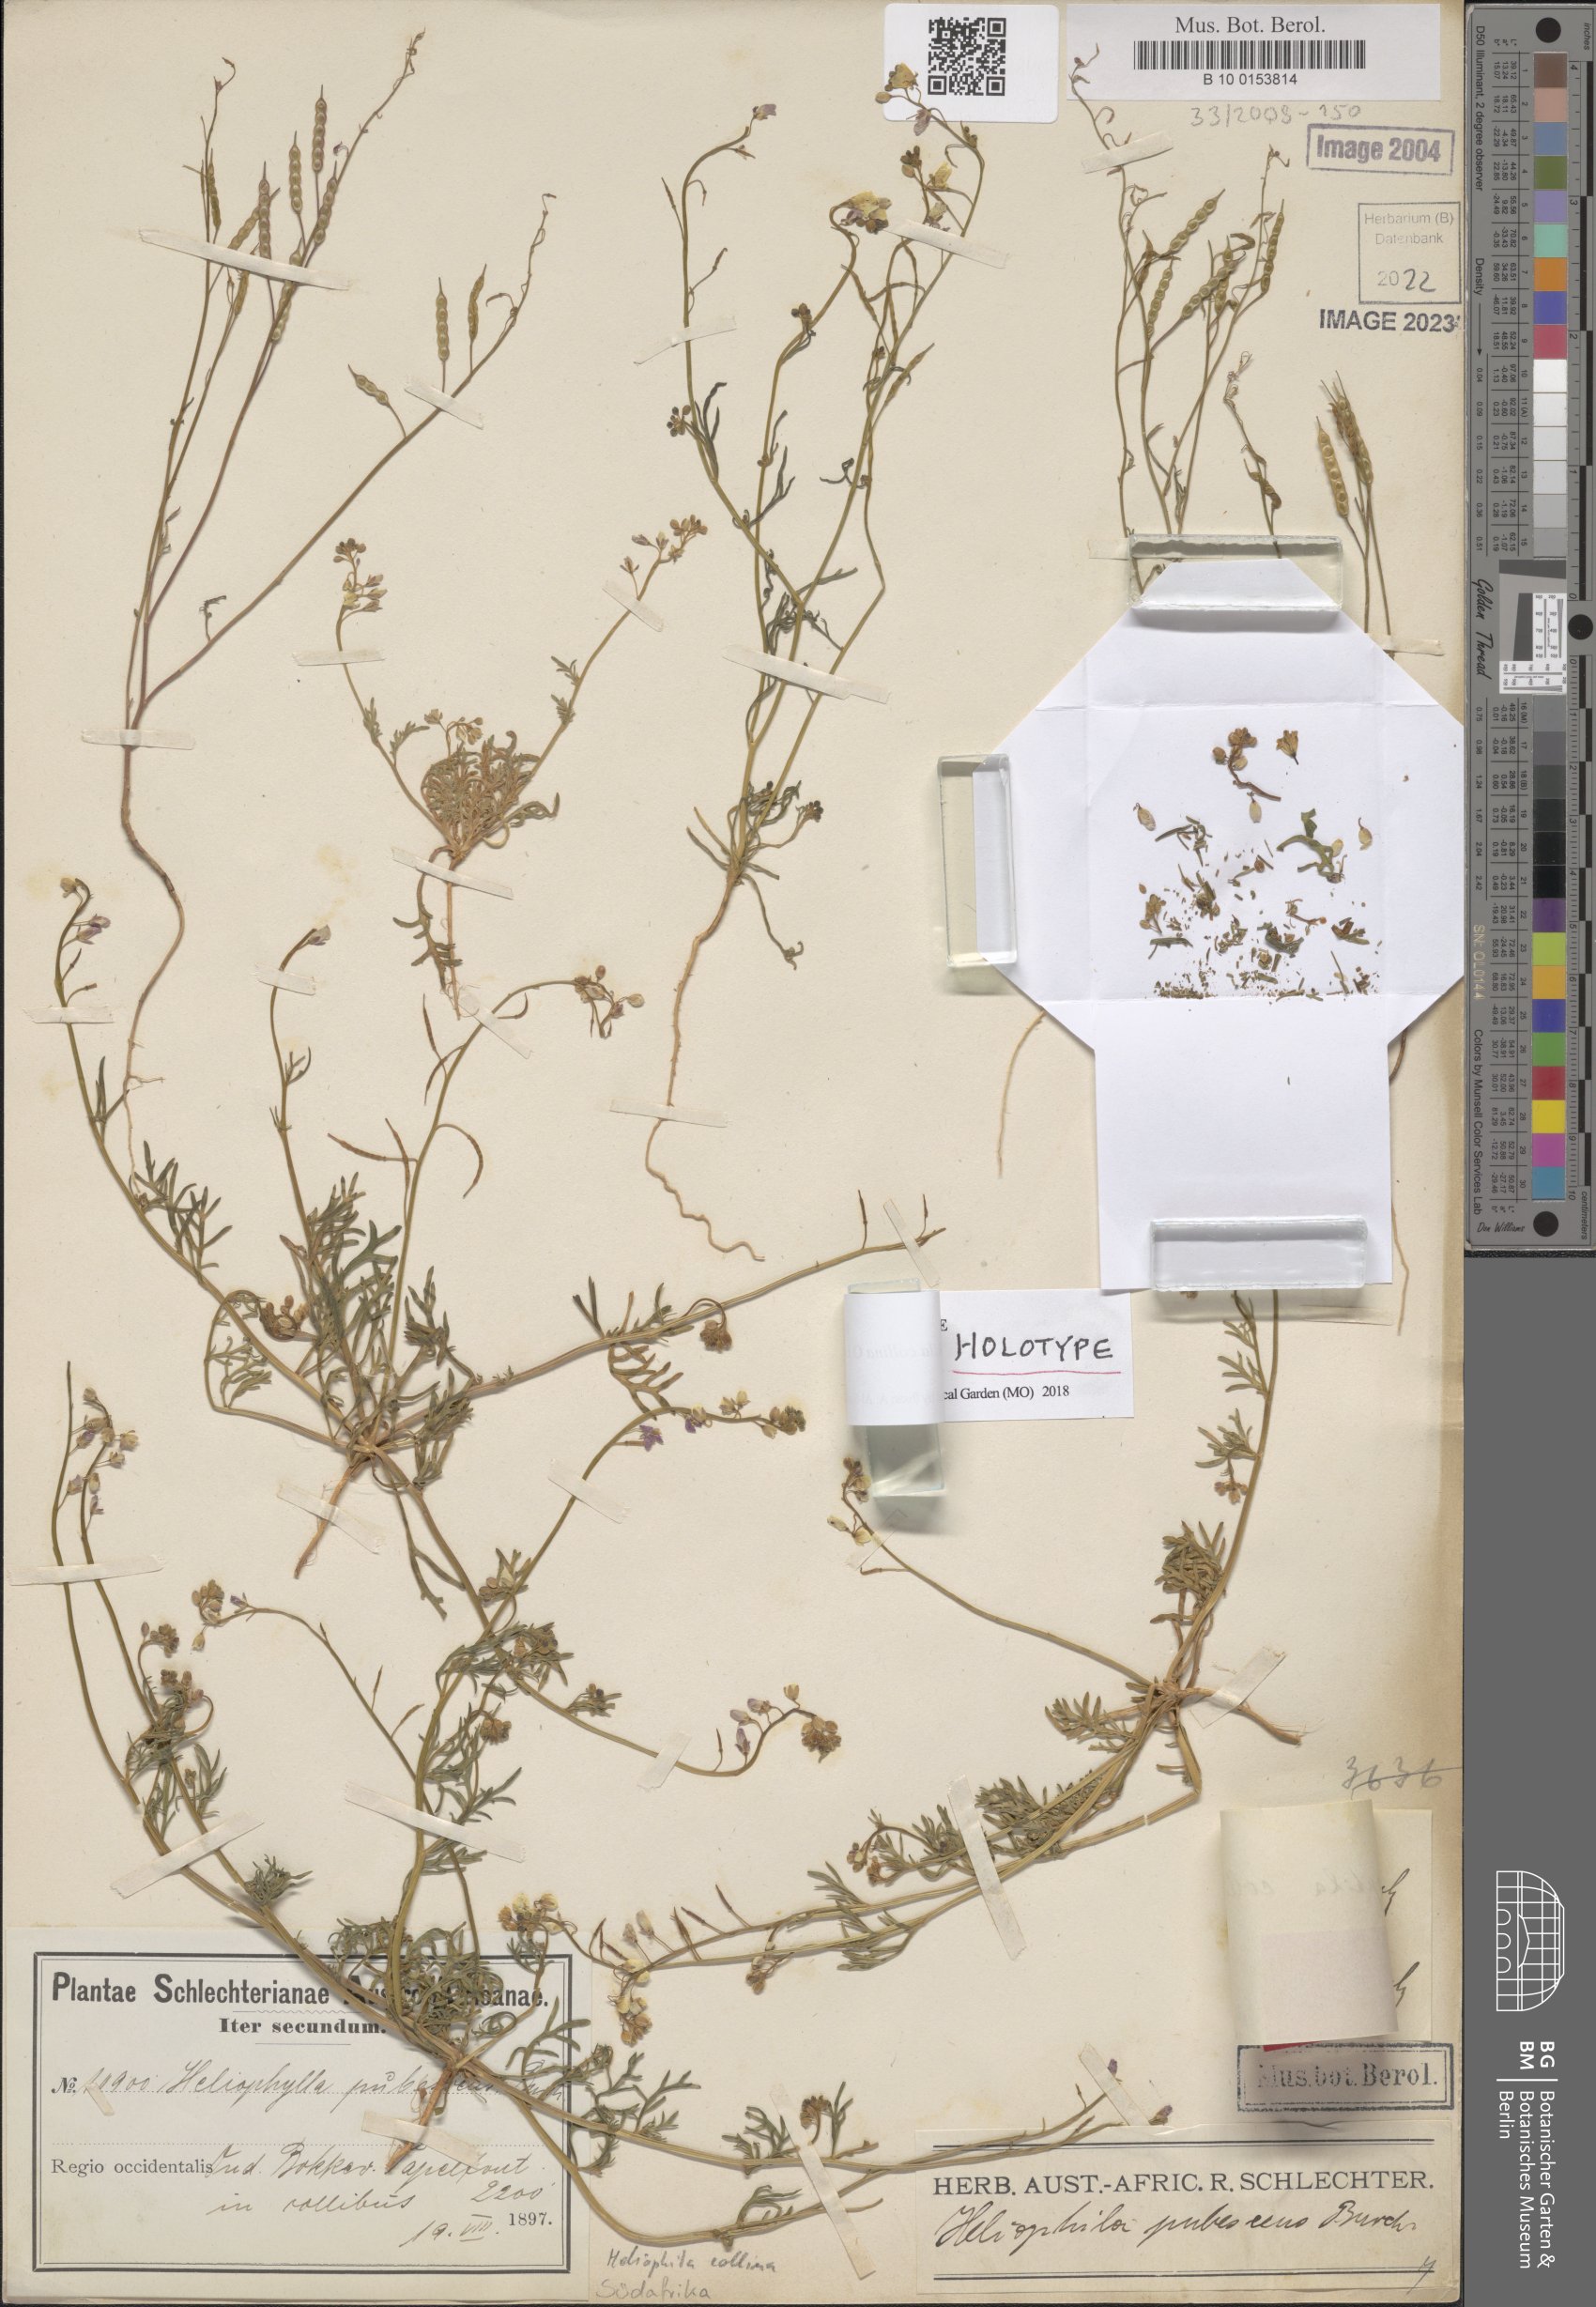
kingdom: Plantae
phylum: Tracheophyta
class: Magnoliopsida
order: Brassicales
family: Brassicaceae
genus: Heliophila
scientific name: Heliophila collina
